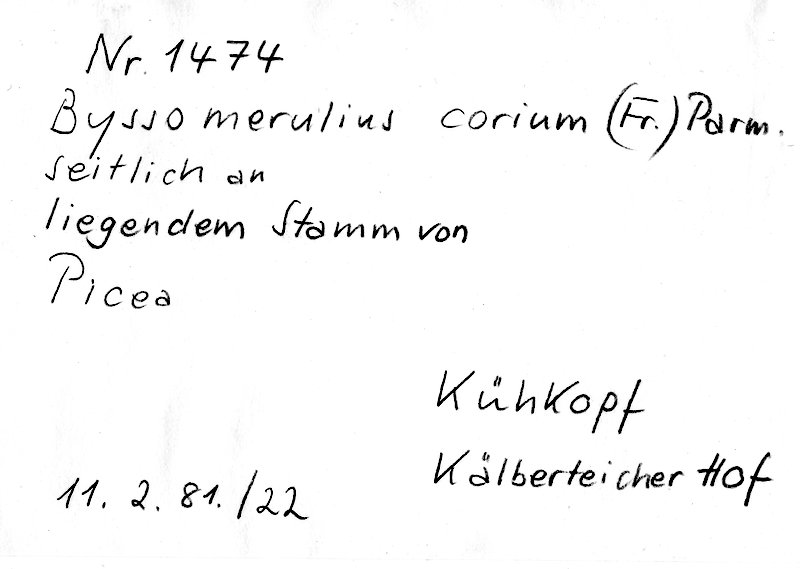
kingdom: Plantae
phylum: Tracheophyta
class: Pinopsida
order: Pinales
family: Pinaceae
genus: Picea
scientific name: Picea
